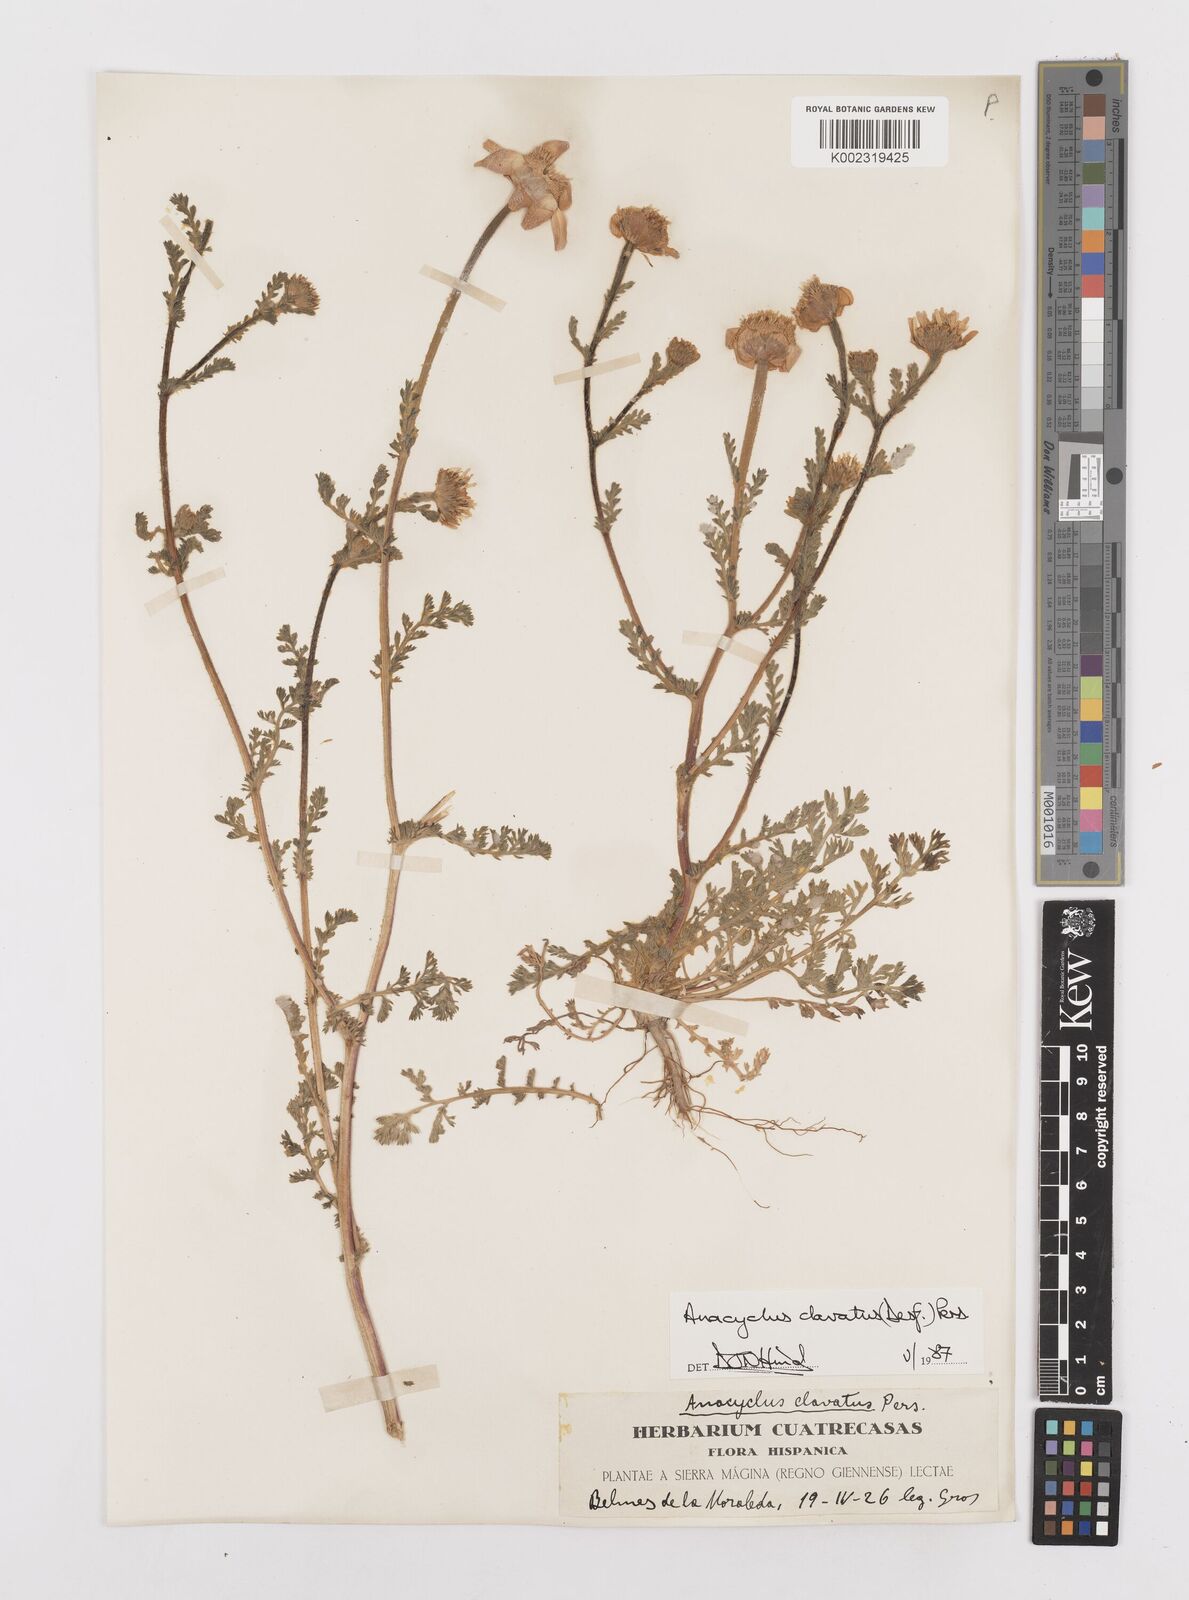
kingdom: Plantae
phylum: Tracheophyta
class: Magnoliopsida
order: Asterales
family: Asteraceae
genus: Anacyclus
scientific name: Anacyclus clavatus
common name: Whitebuttons
